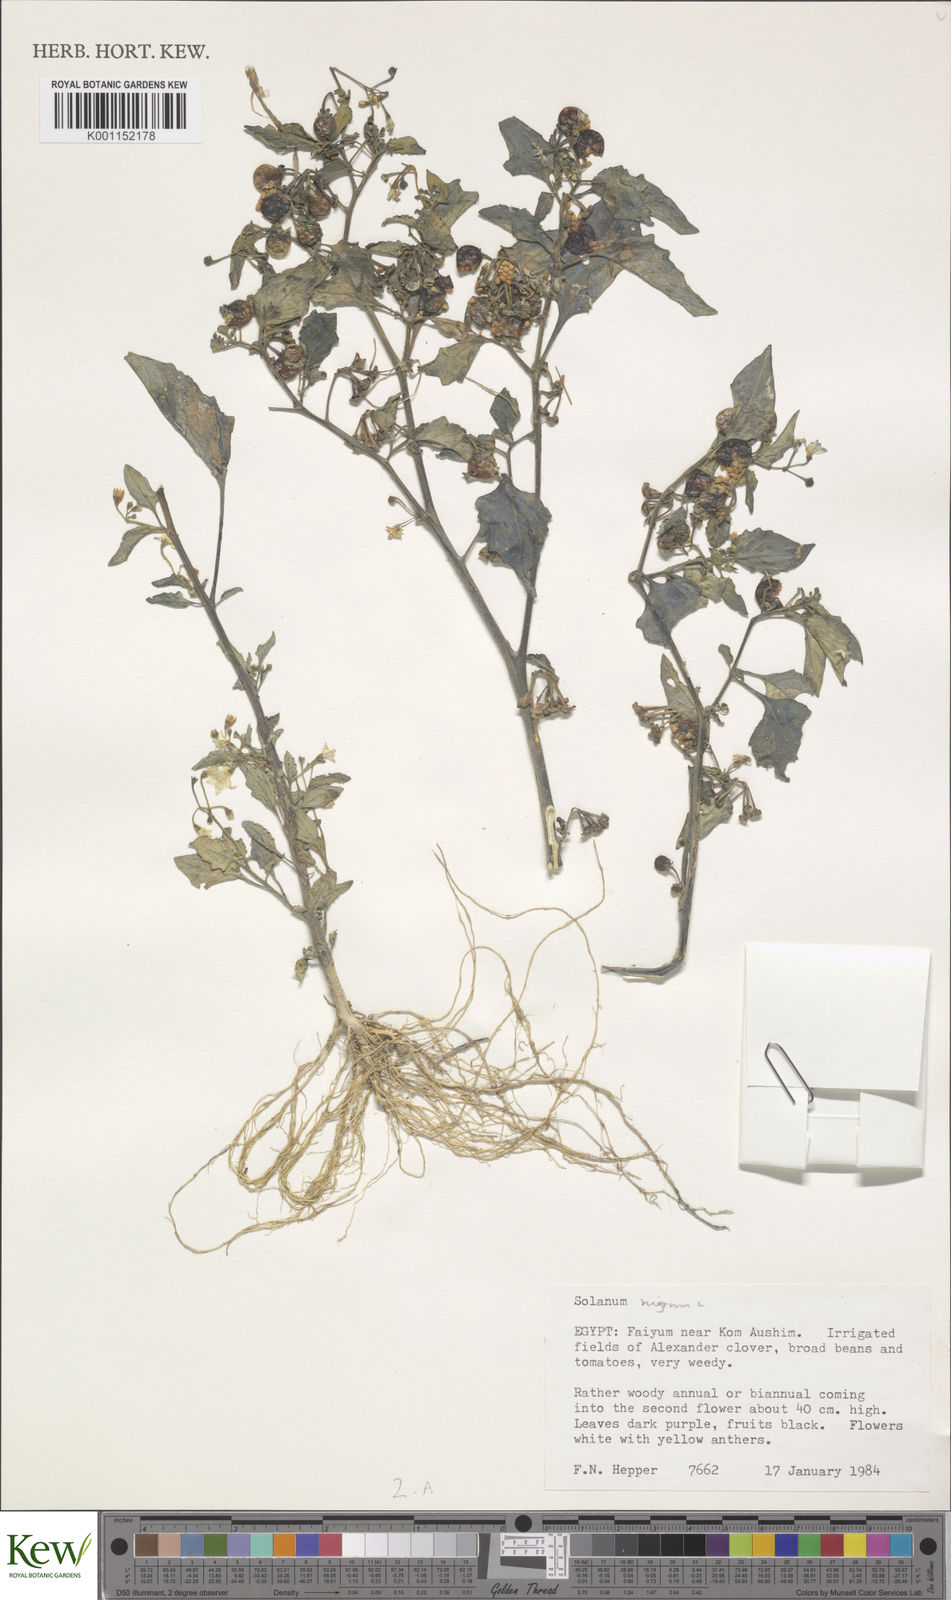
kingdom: Plantae
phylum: Tracheophyta
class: Magnoliopsida
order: Solanales
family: Solanaceae
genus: Solanum
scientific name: Solanum
